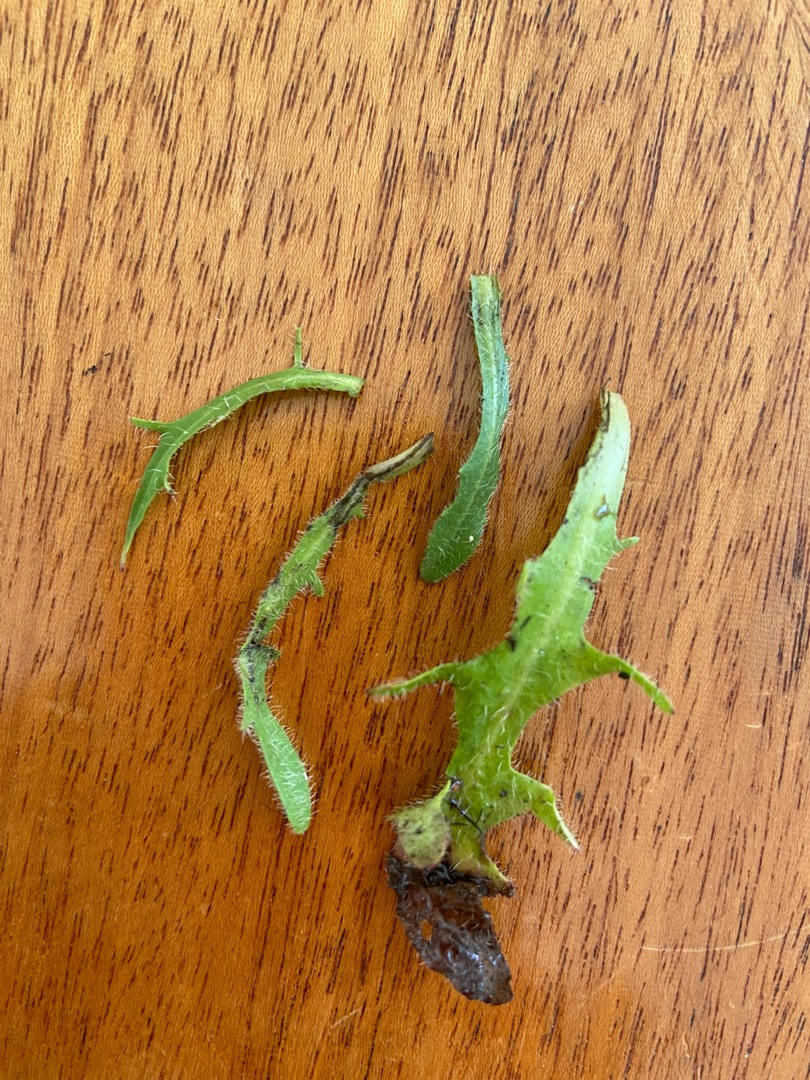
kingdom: Plantae
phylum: Tracheophyta
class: Magnoliopsida
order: Asterales
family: Asteraceae
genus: Hypochaeris
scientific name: Hypochaeris radicata
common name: Almindelig kongepen
